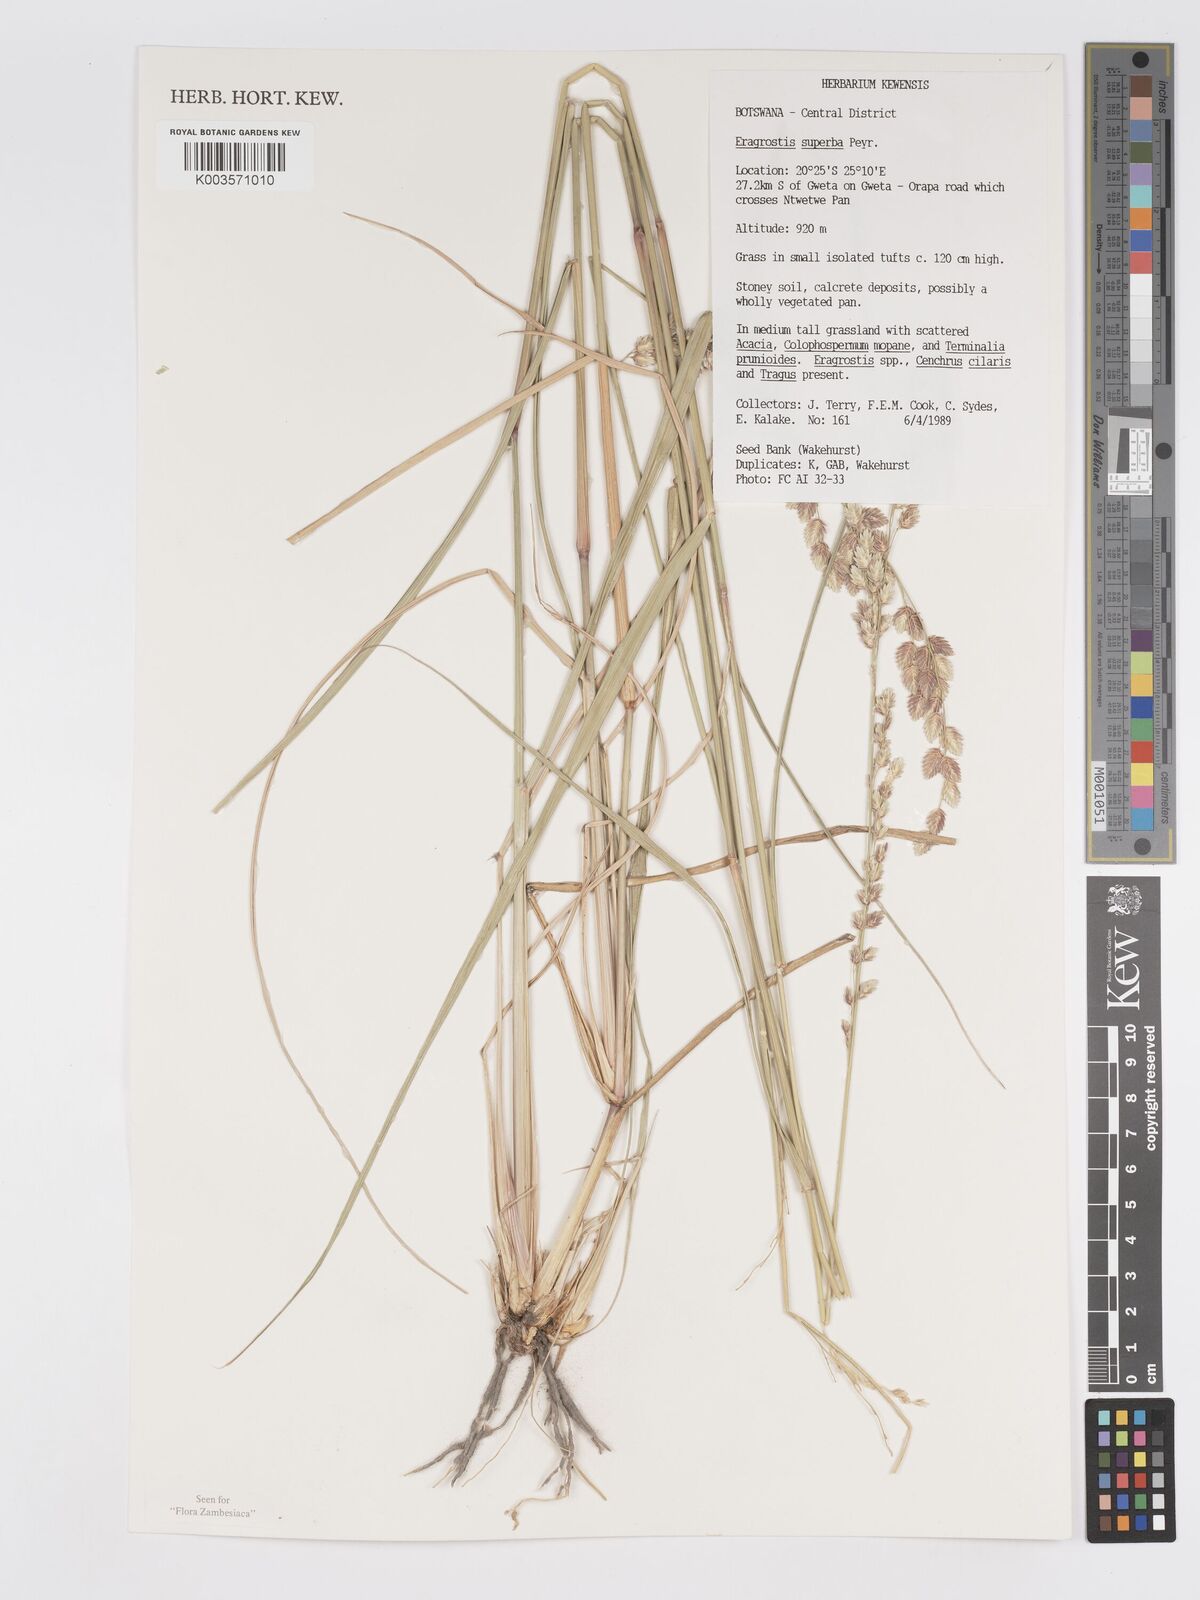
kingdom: Plantae
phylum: Tracheophyta
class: Liliopsida
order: Poales
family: Poaceae
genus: Eragrostis
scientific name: Eragrostis superba
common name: Wilman lovegrass
